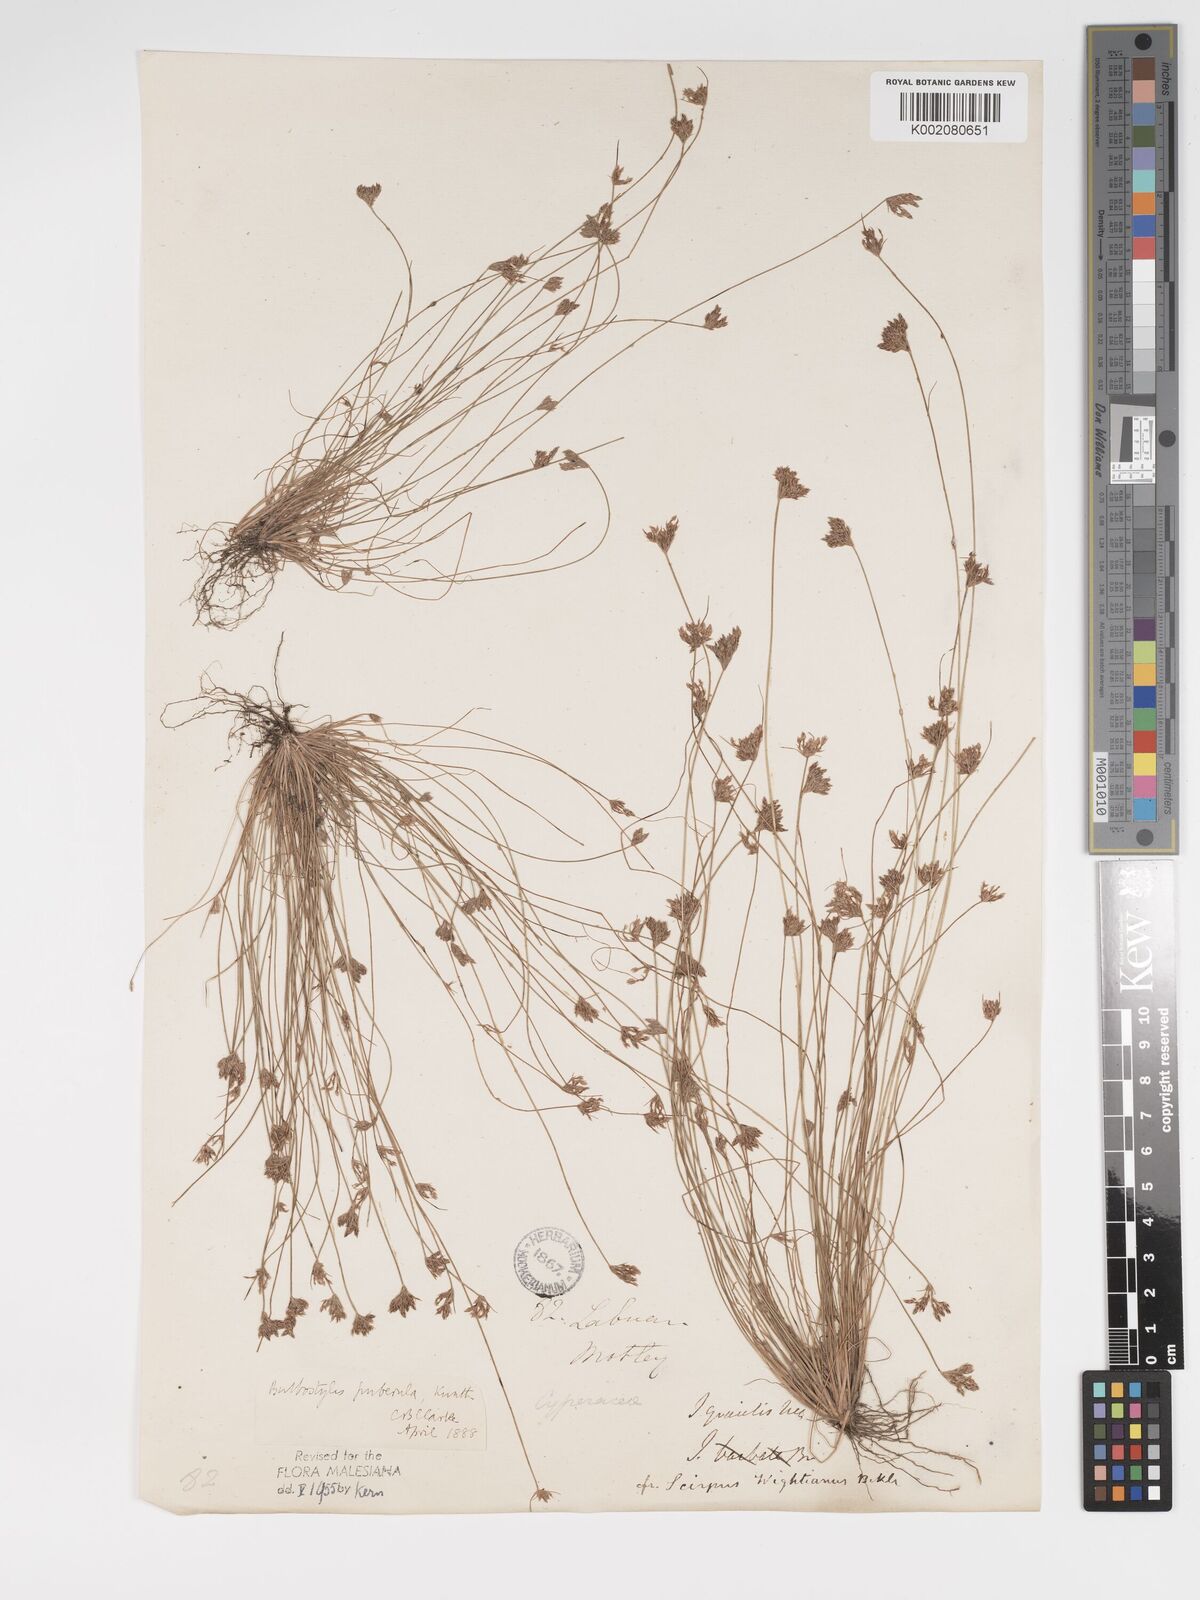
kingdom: Plantae
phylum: Tracheophyta
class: Liliopsida
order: Poales
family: Cyperaceae
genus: Bulbostylis
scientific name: Bulbostylis thouarsii
